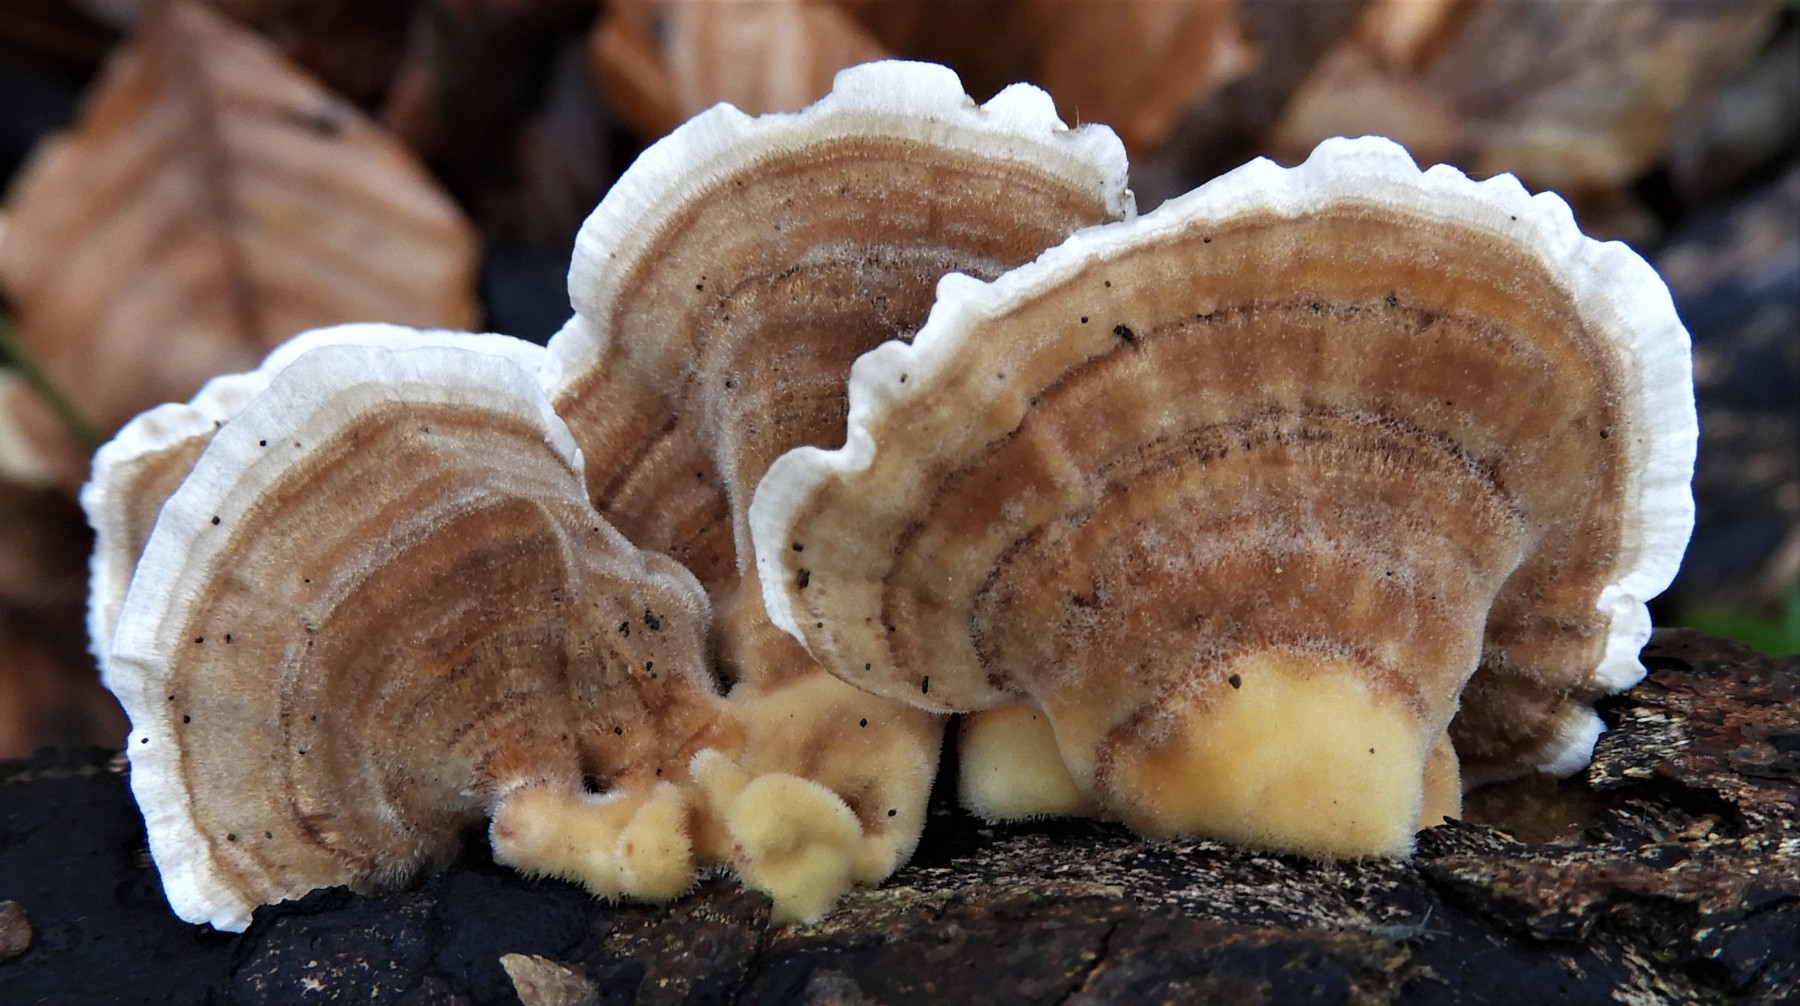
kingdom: Fungi
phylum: Basidiomycota
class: Agaricomycetes
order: Polyporales
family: Polyporaceae
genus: Trametes
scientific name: Trametes versicolor
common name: broget læderporesvamp
